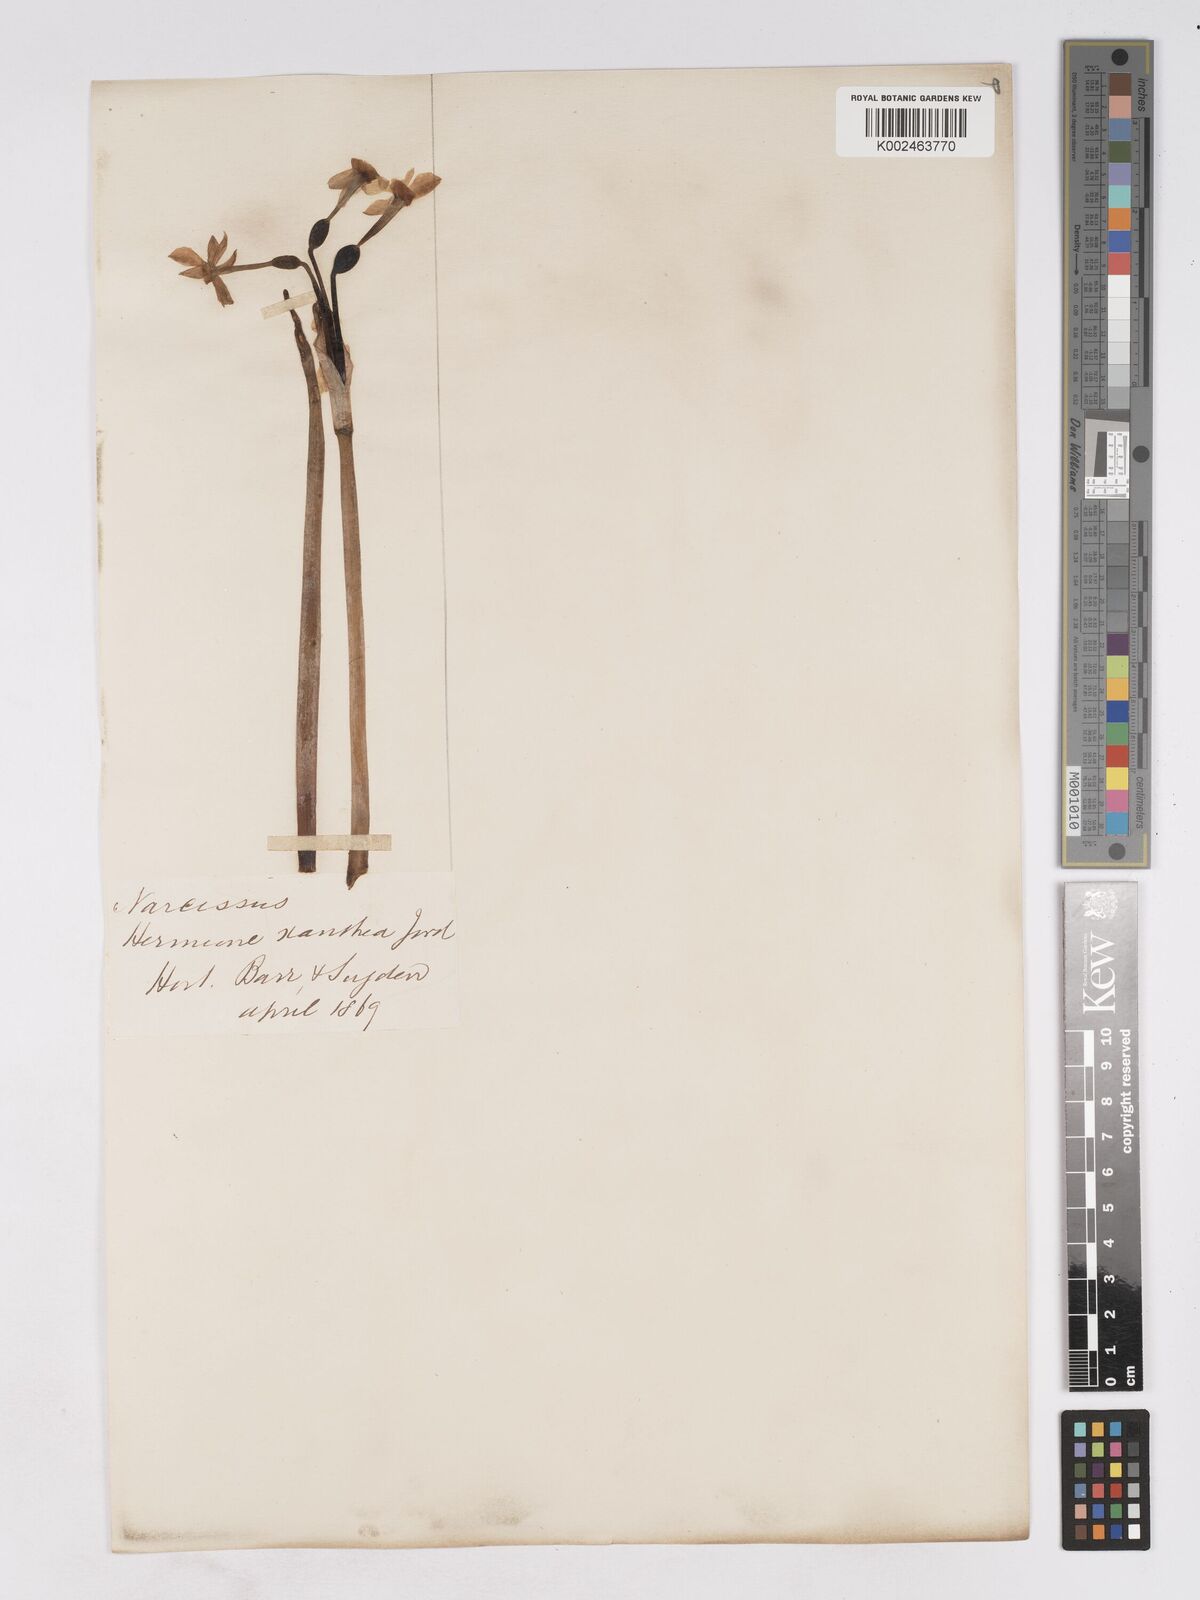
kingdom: Plantae
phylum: Tracheophyta
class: Liliopsida
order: Asparagales
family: Amaryllidaceae
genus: Narcissus
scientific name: Narcissus
